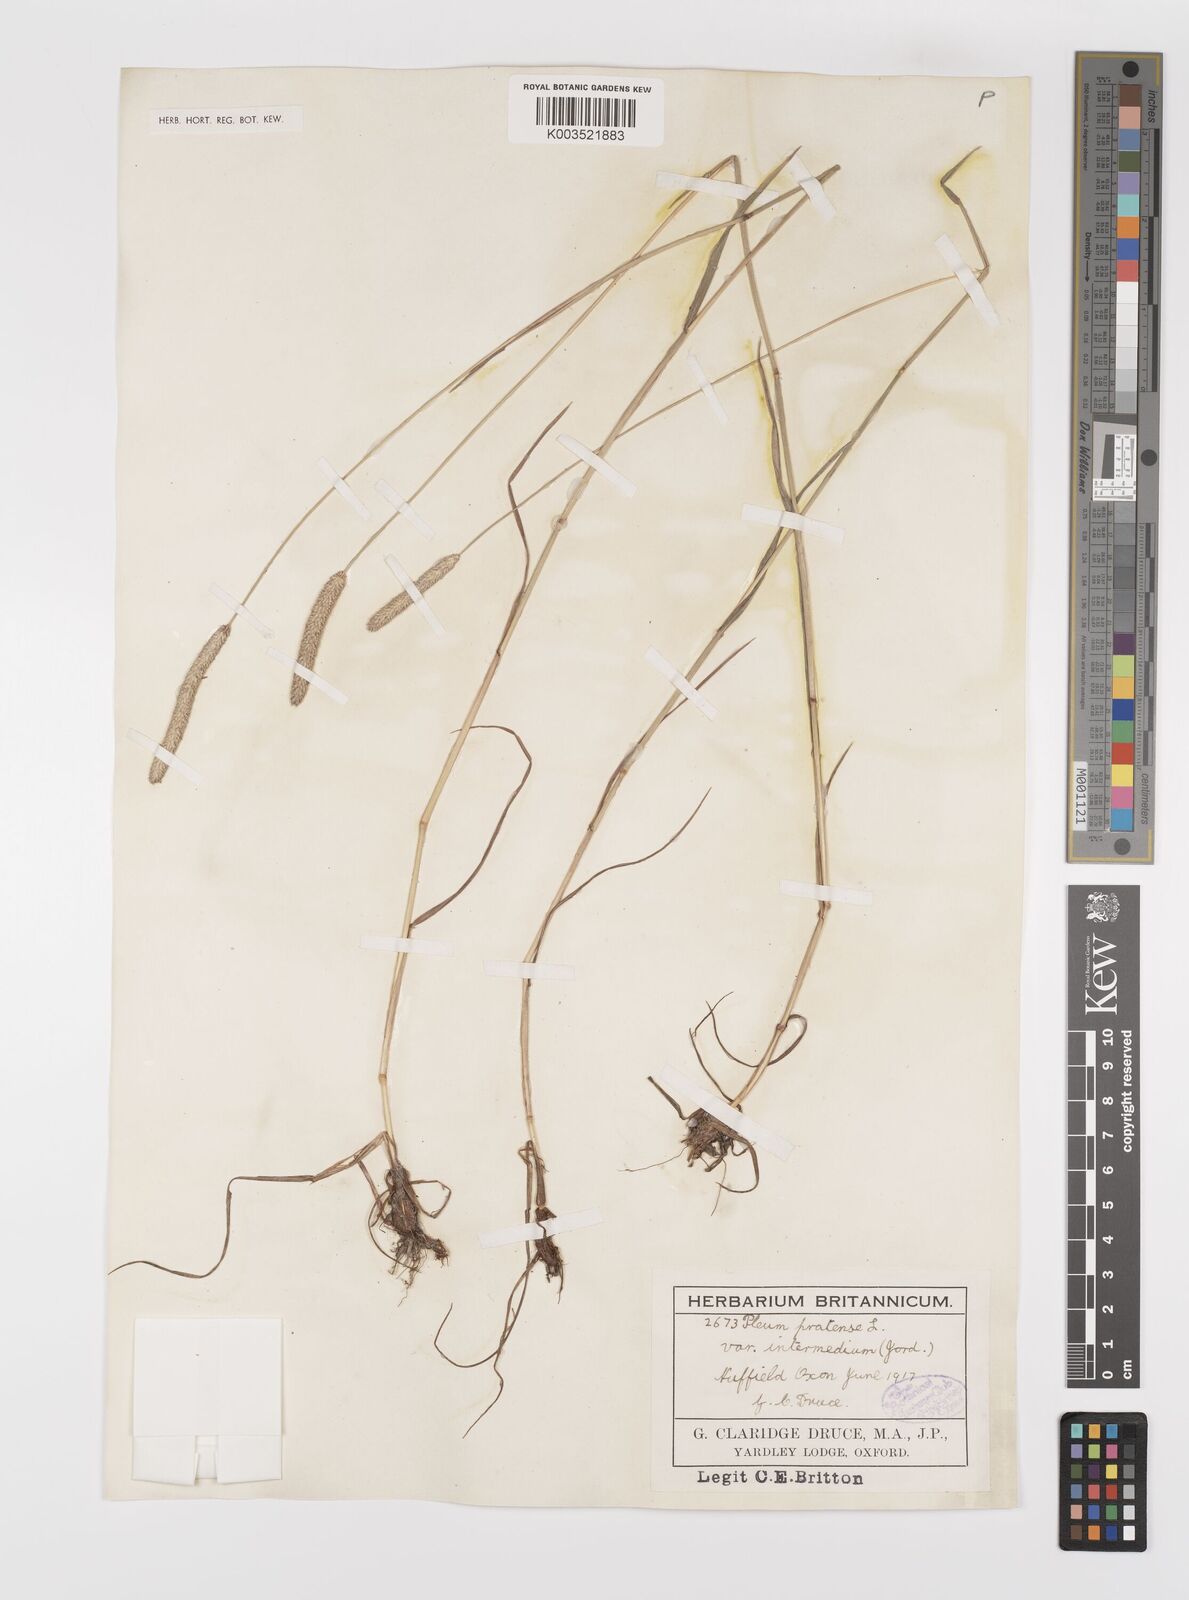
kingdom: Plantae
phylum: Tracheophyta
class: Liliopsida
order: Poales
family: Poaceae
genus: Phleum
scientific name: Phleum pratense
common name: Timothy grass
